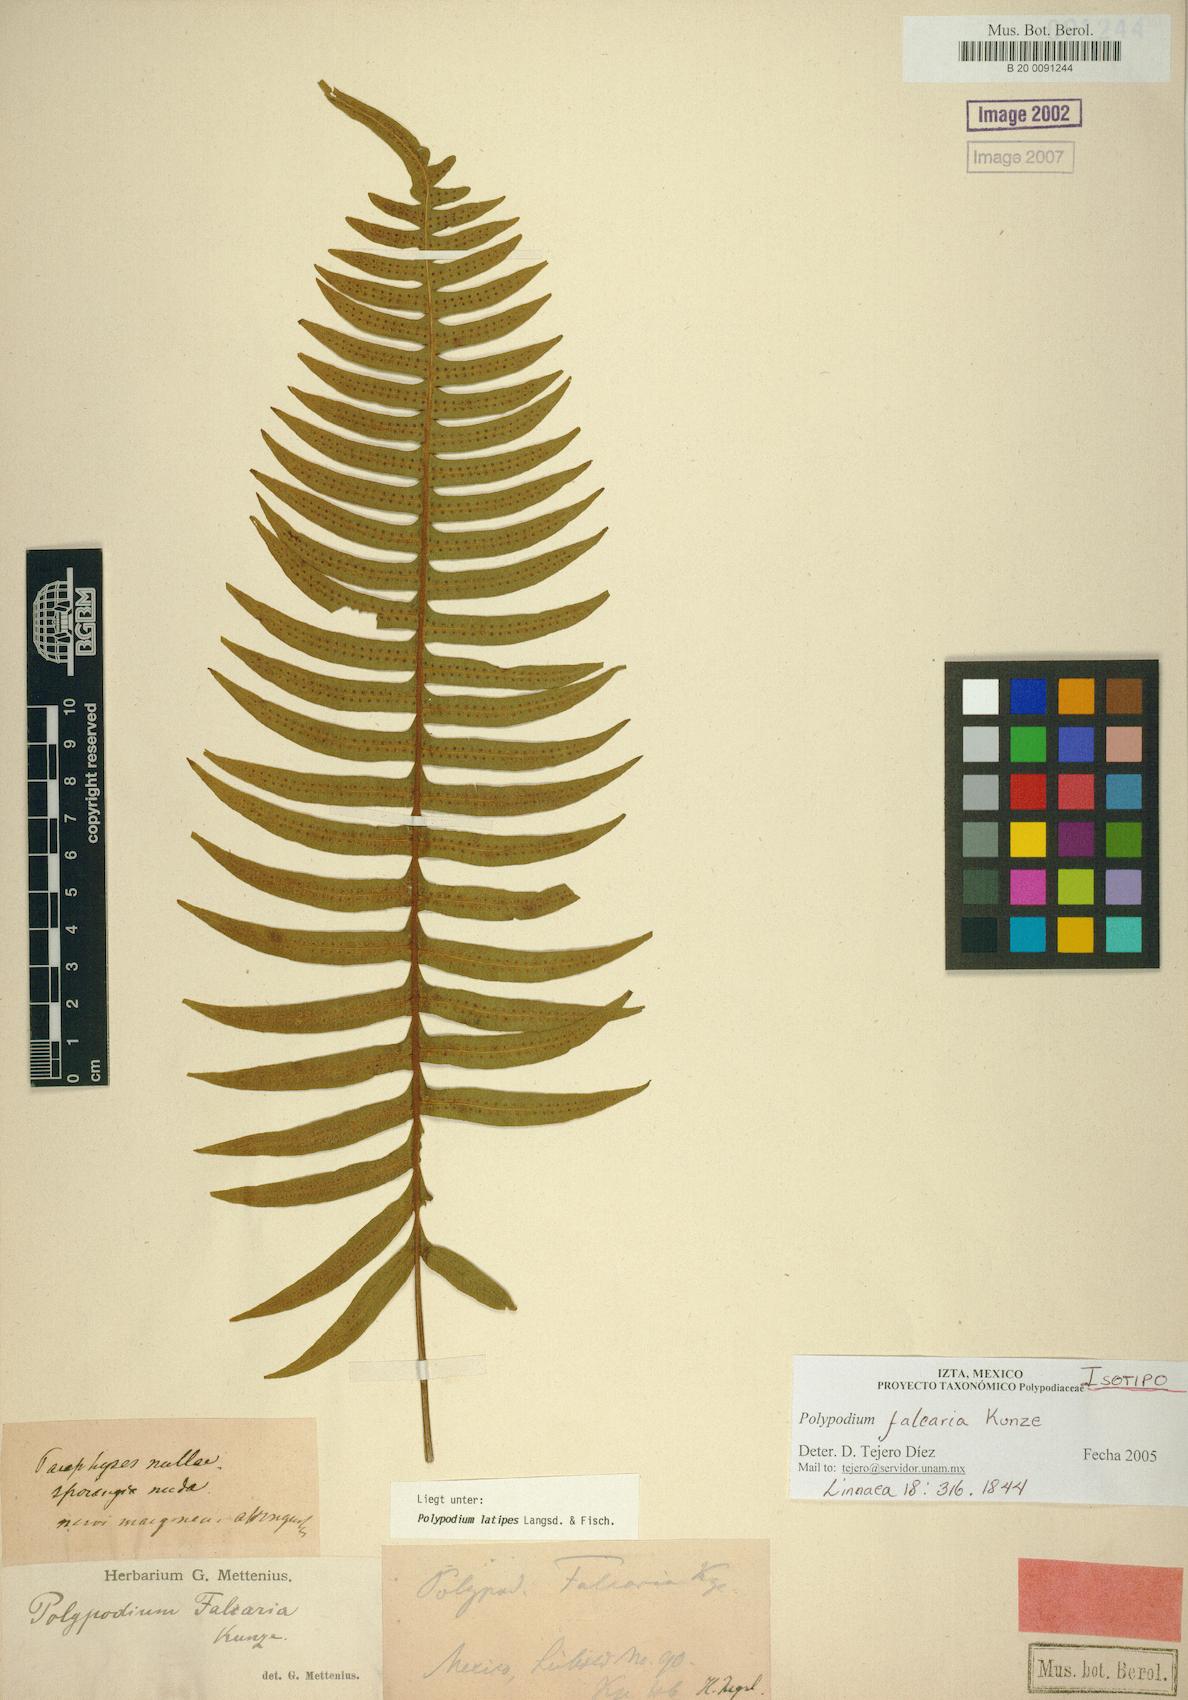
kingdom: Plantae
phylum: Tracheophyta
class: Polypodiopsida
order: Polypodiales
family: Polypodiaceae
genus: Serpocaulon
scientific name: Serpocaulon latipes
